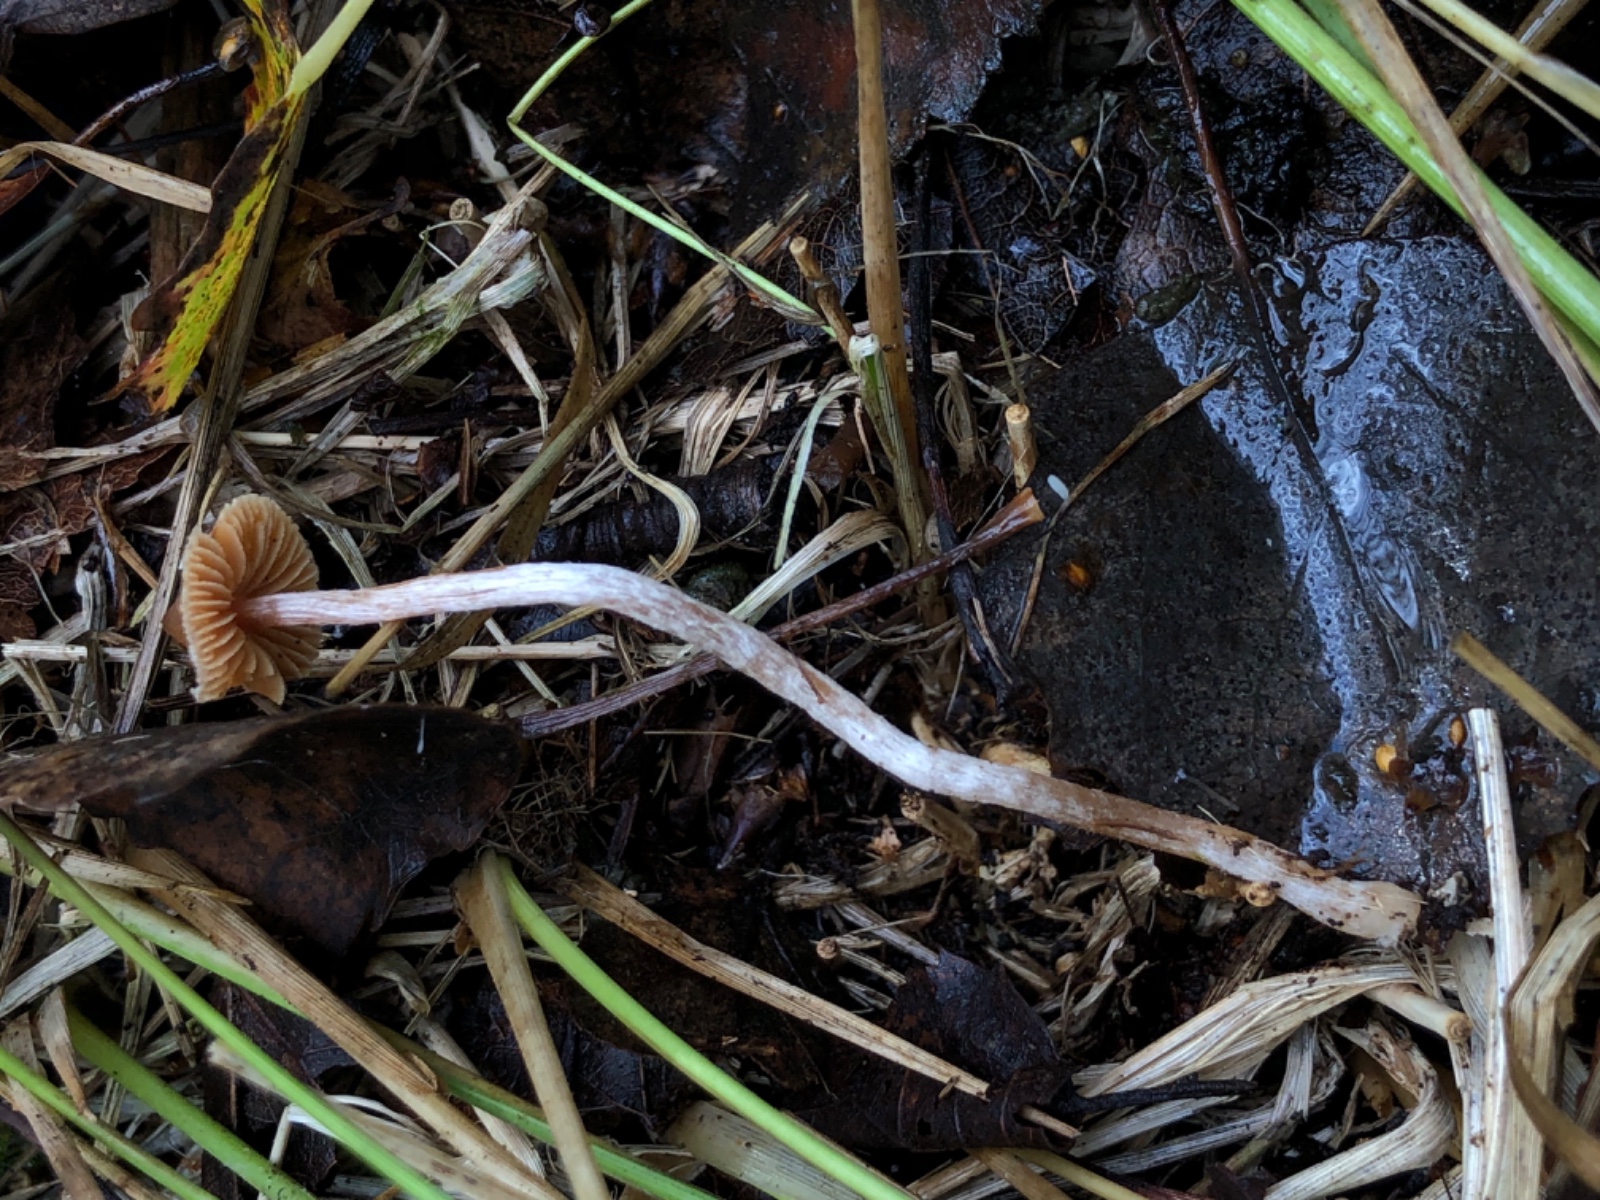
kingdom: Fungi
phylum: Basidiomycota
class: Agaricomycetes
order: Agaricales
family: Cortinariaceae
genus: Cortinarius
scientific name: Cortinarius acutus
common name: spids slørhat
